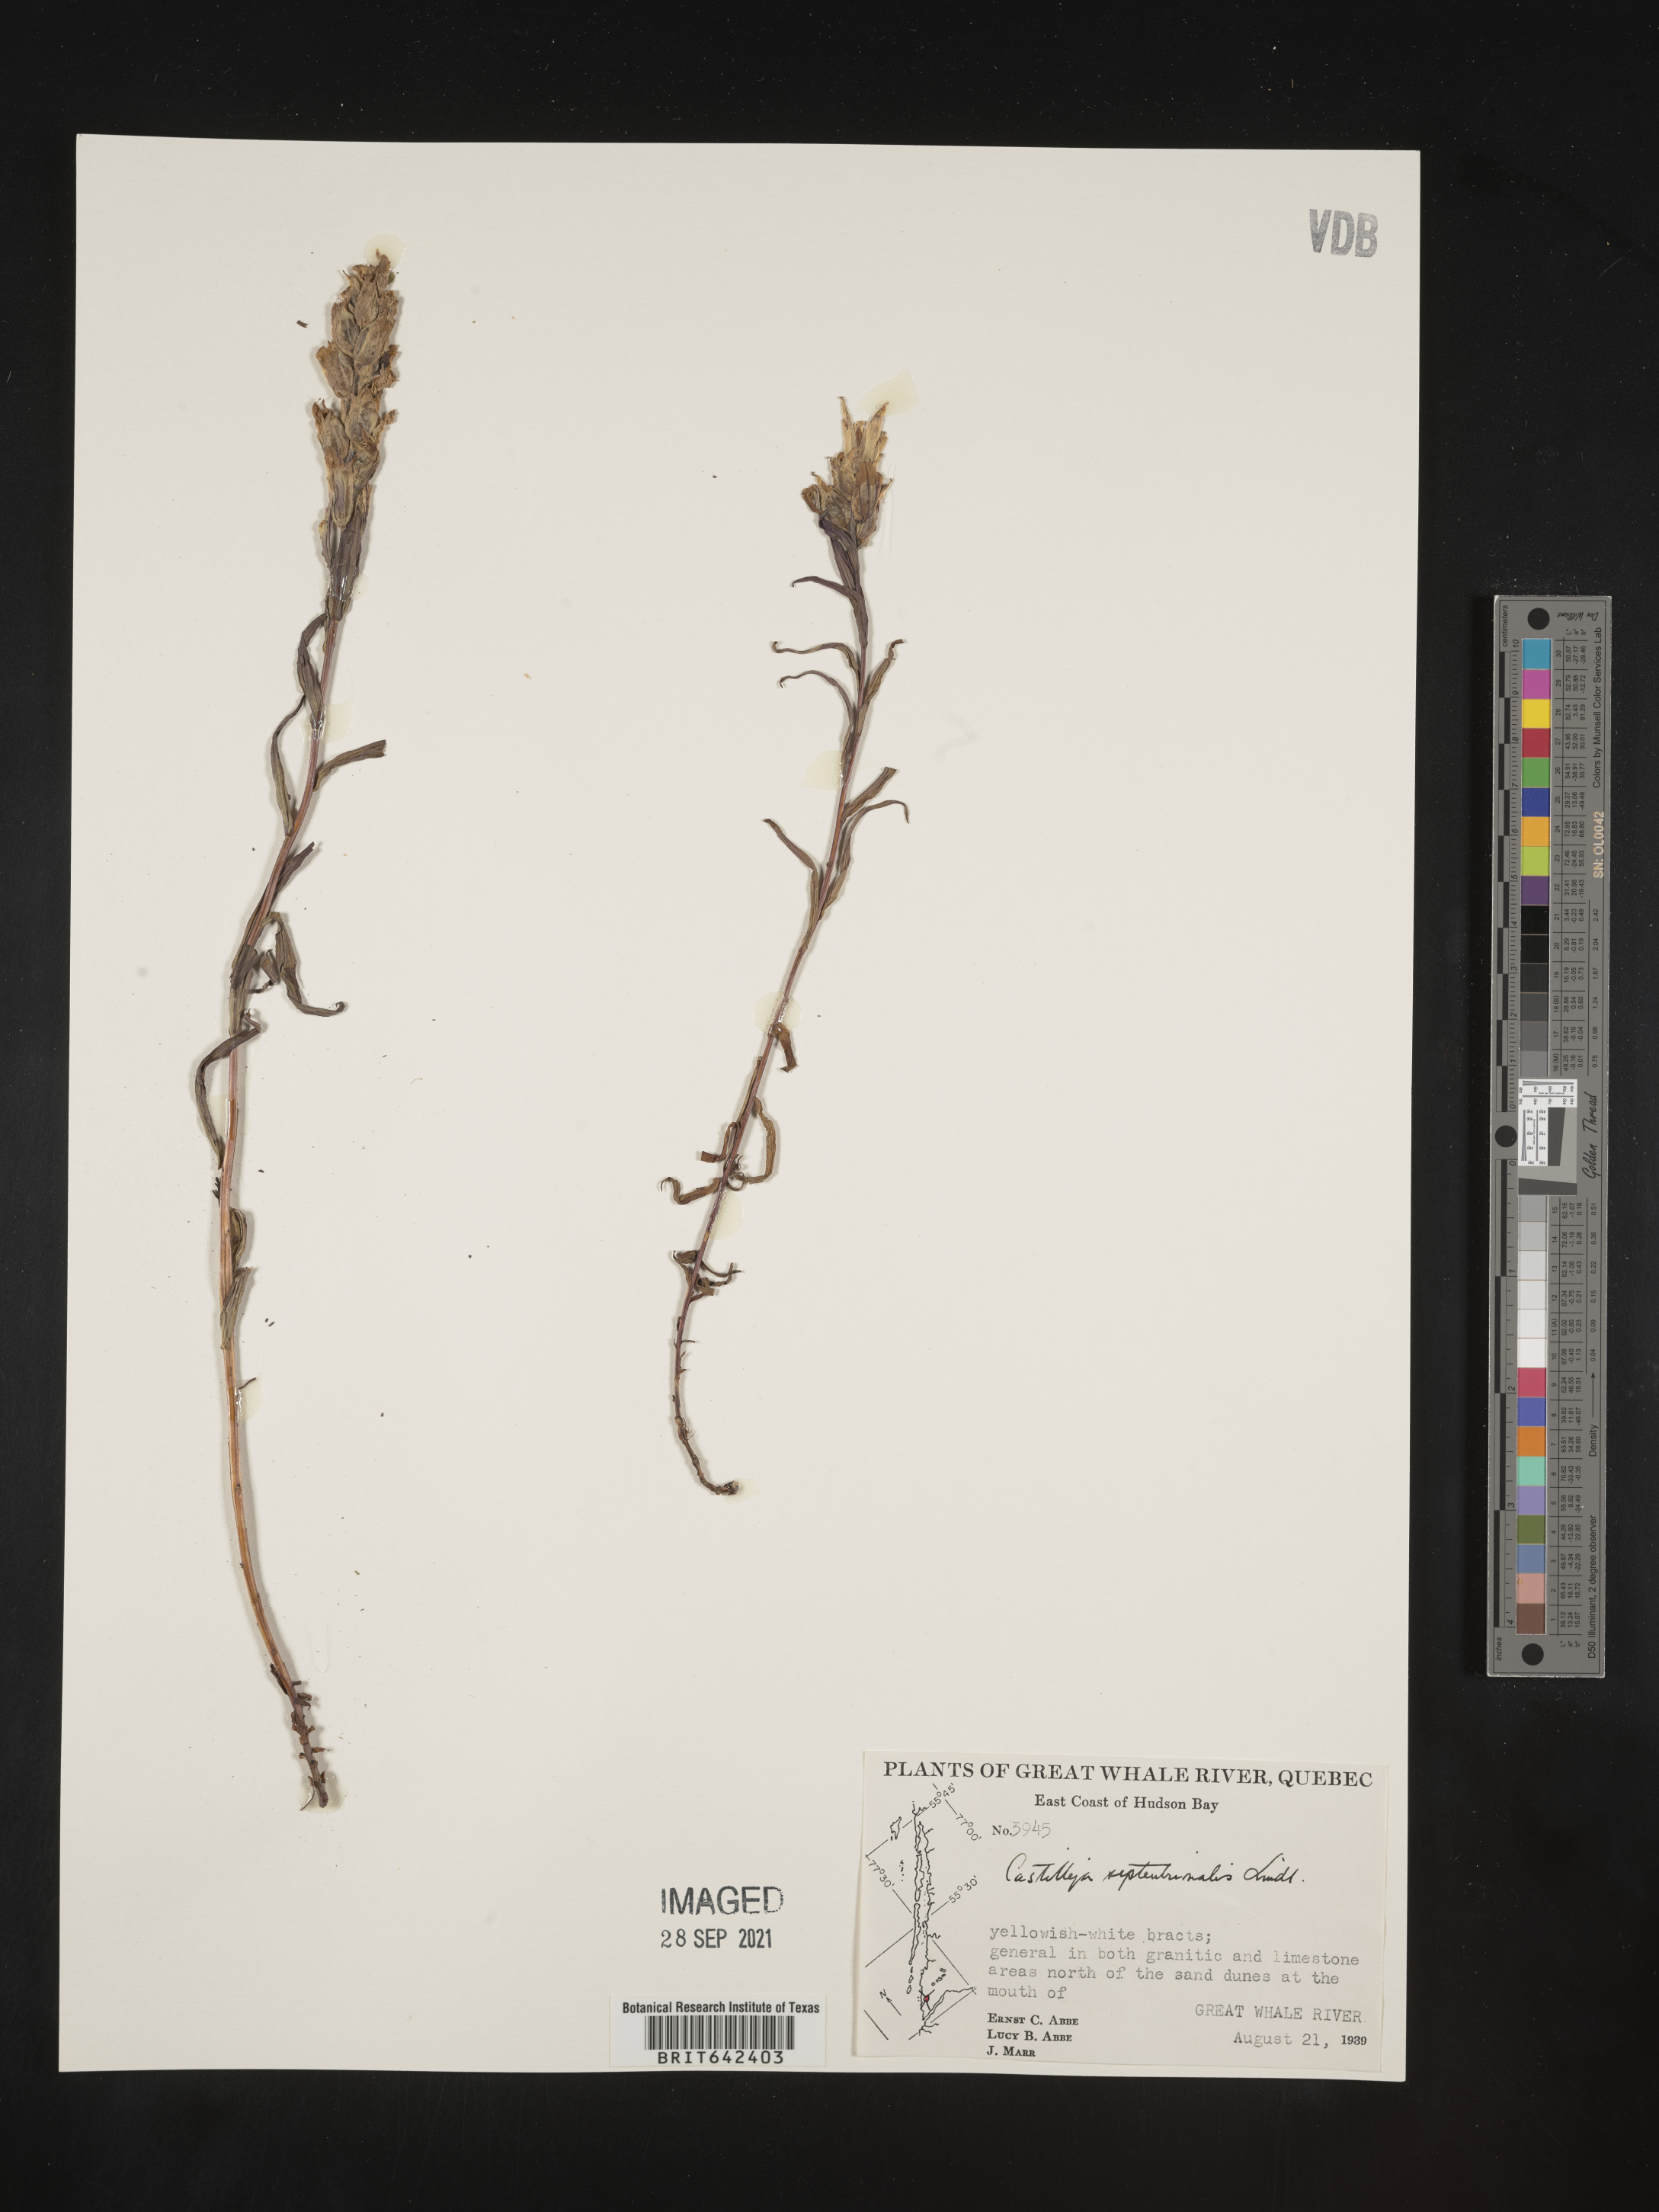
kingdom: Plantae
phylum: Tracheophyta
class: Magnoliopsida
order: Lamiales
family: Orobanchaceae
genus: Castilleja
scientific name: Castilleja
